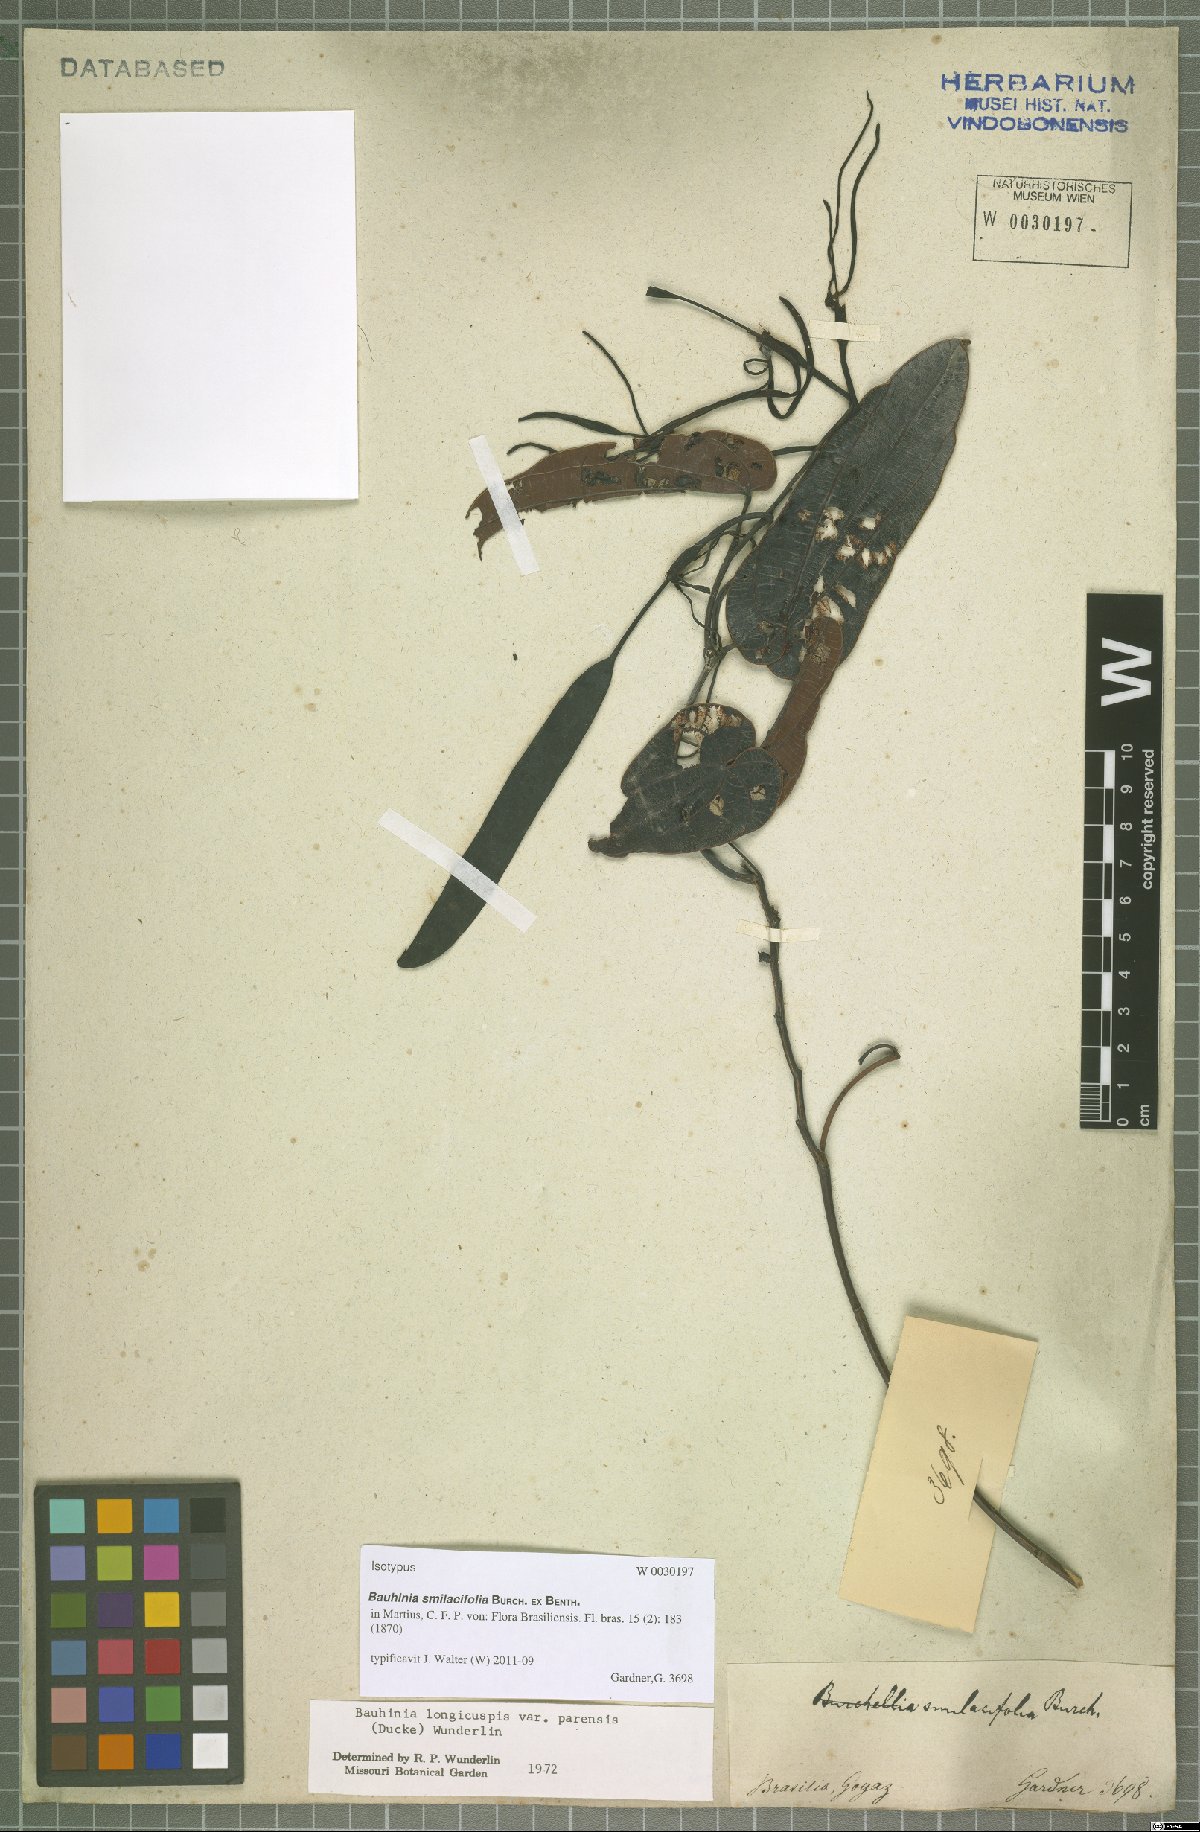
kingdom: Plantae
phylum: Tracheophyta
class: Magnoliopsida
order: Fabales
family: Fabaceae
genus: Bauhinia
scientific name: Bauhinia smilacifolia
